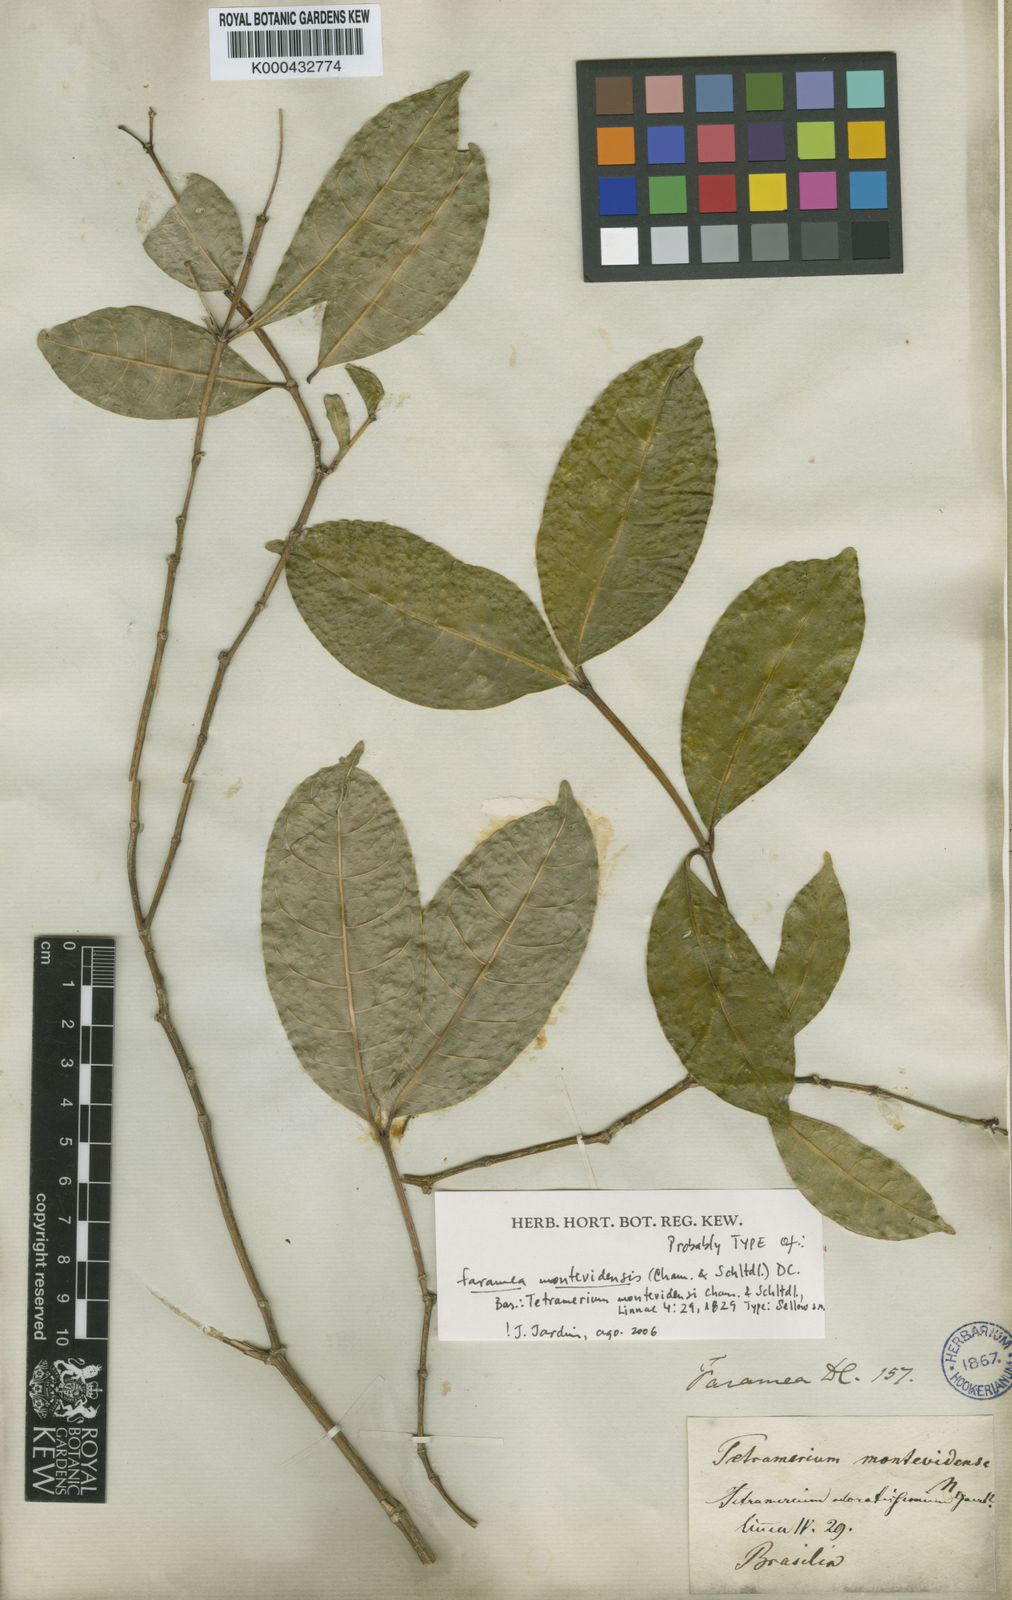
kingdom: Plantae
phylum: Tracheophyta
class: Magnoliopsida
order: Gentianales
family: Rubiaceae
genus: Faramea
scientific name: Faramea montevidensis
